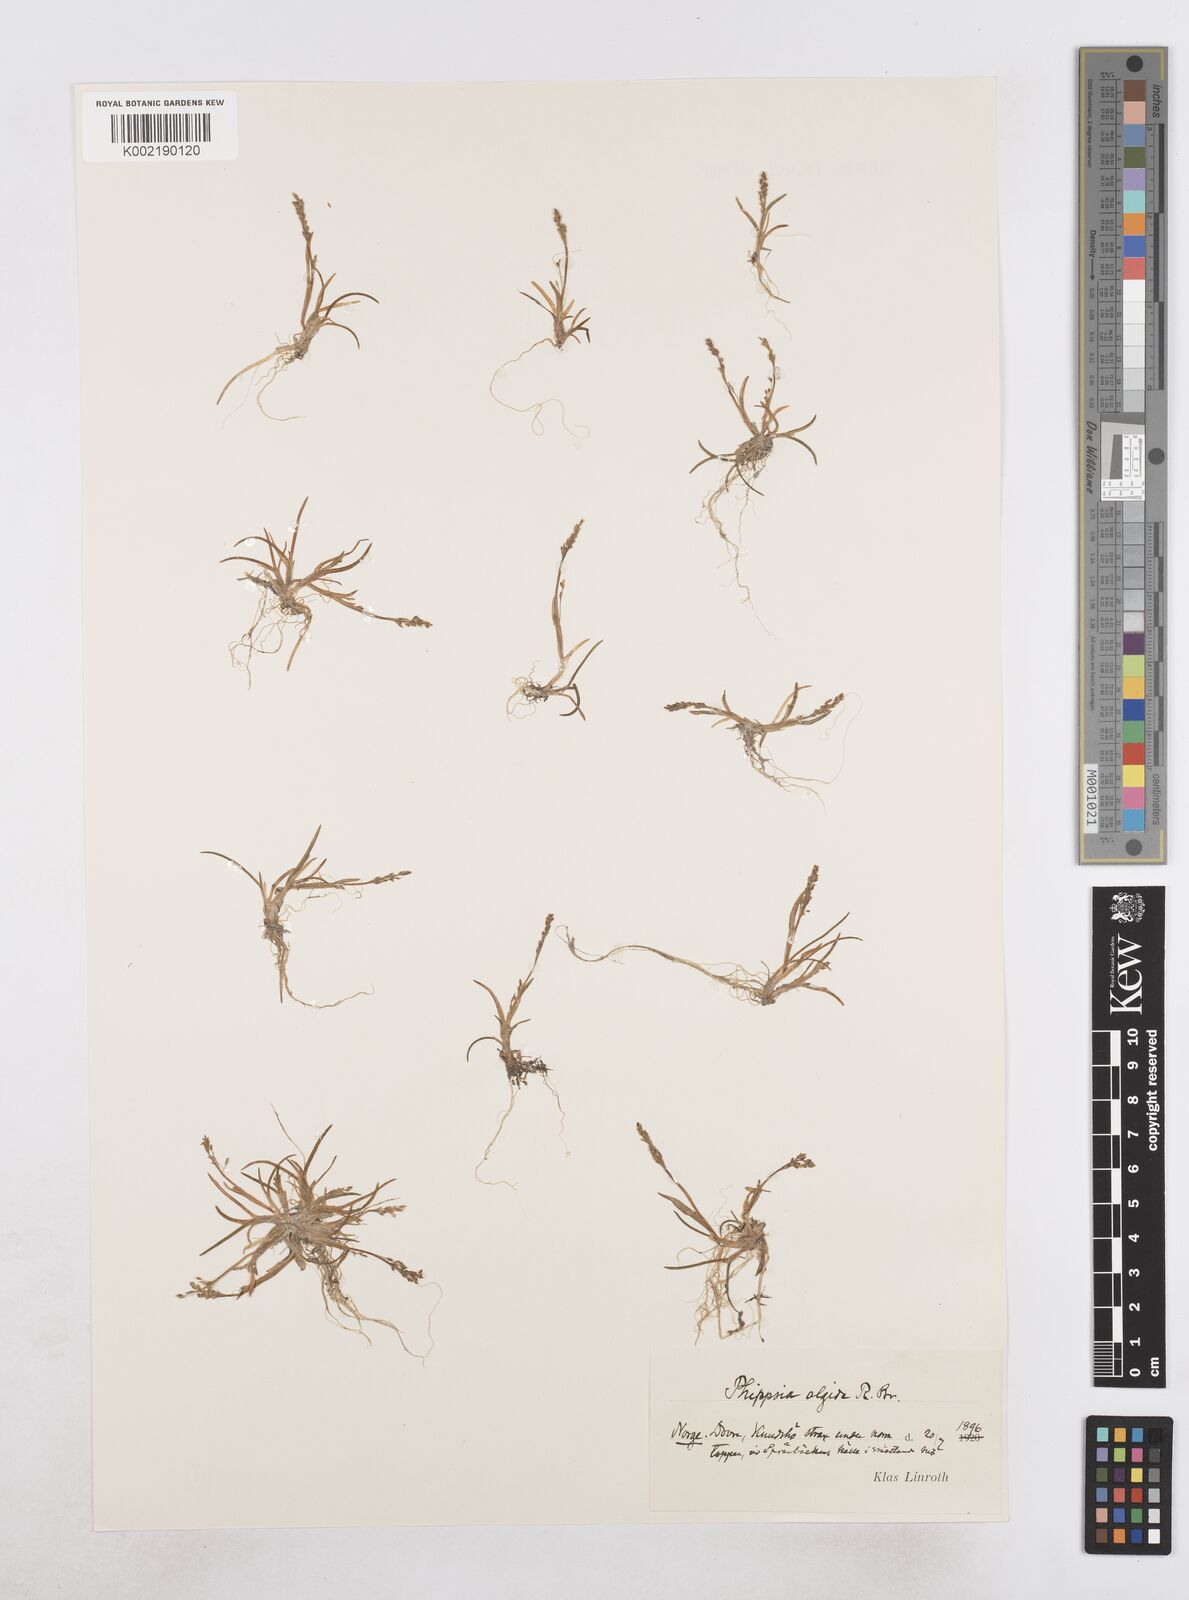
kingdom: Plantae
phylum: Tracheophyta
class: Liliopsida
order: Poales
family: Poaceae
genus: Phippsia
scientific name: Phippsia algida
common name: Ice grass
